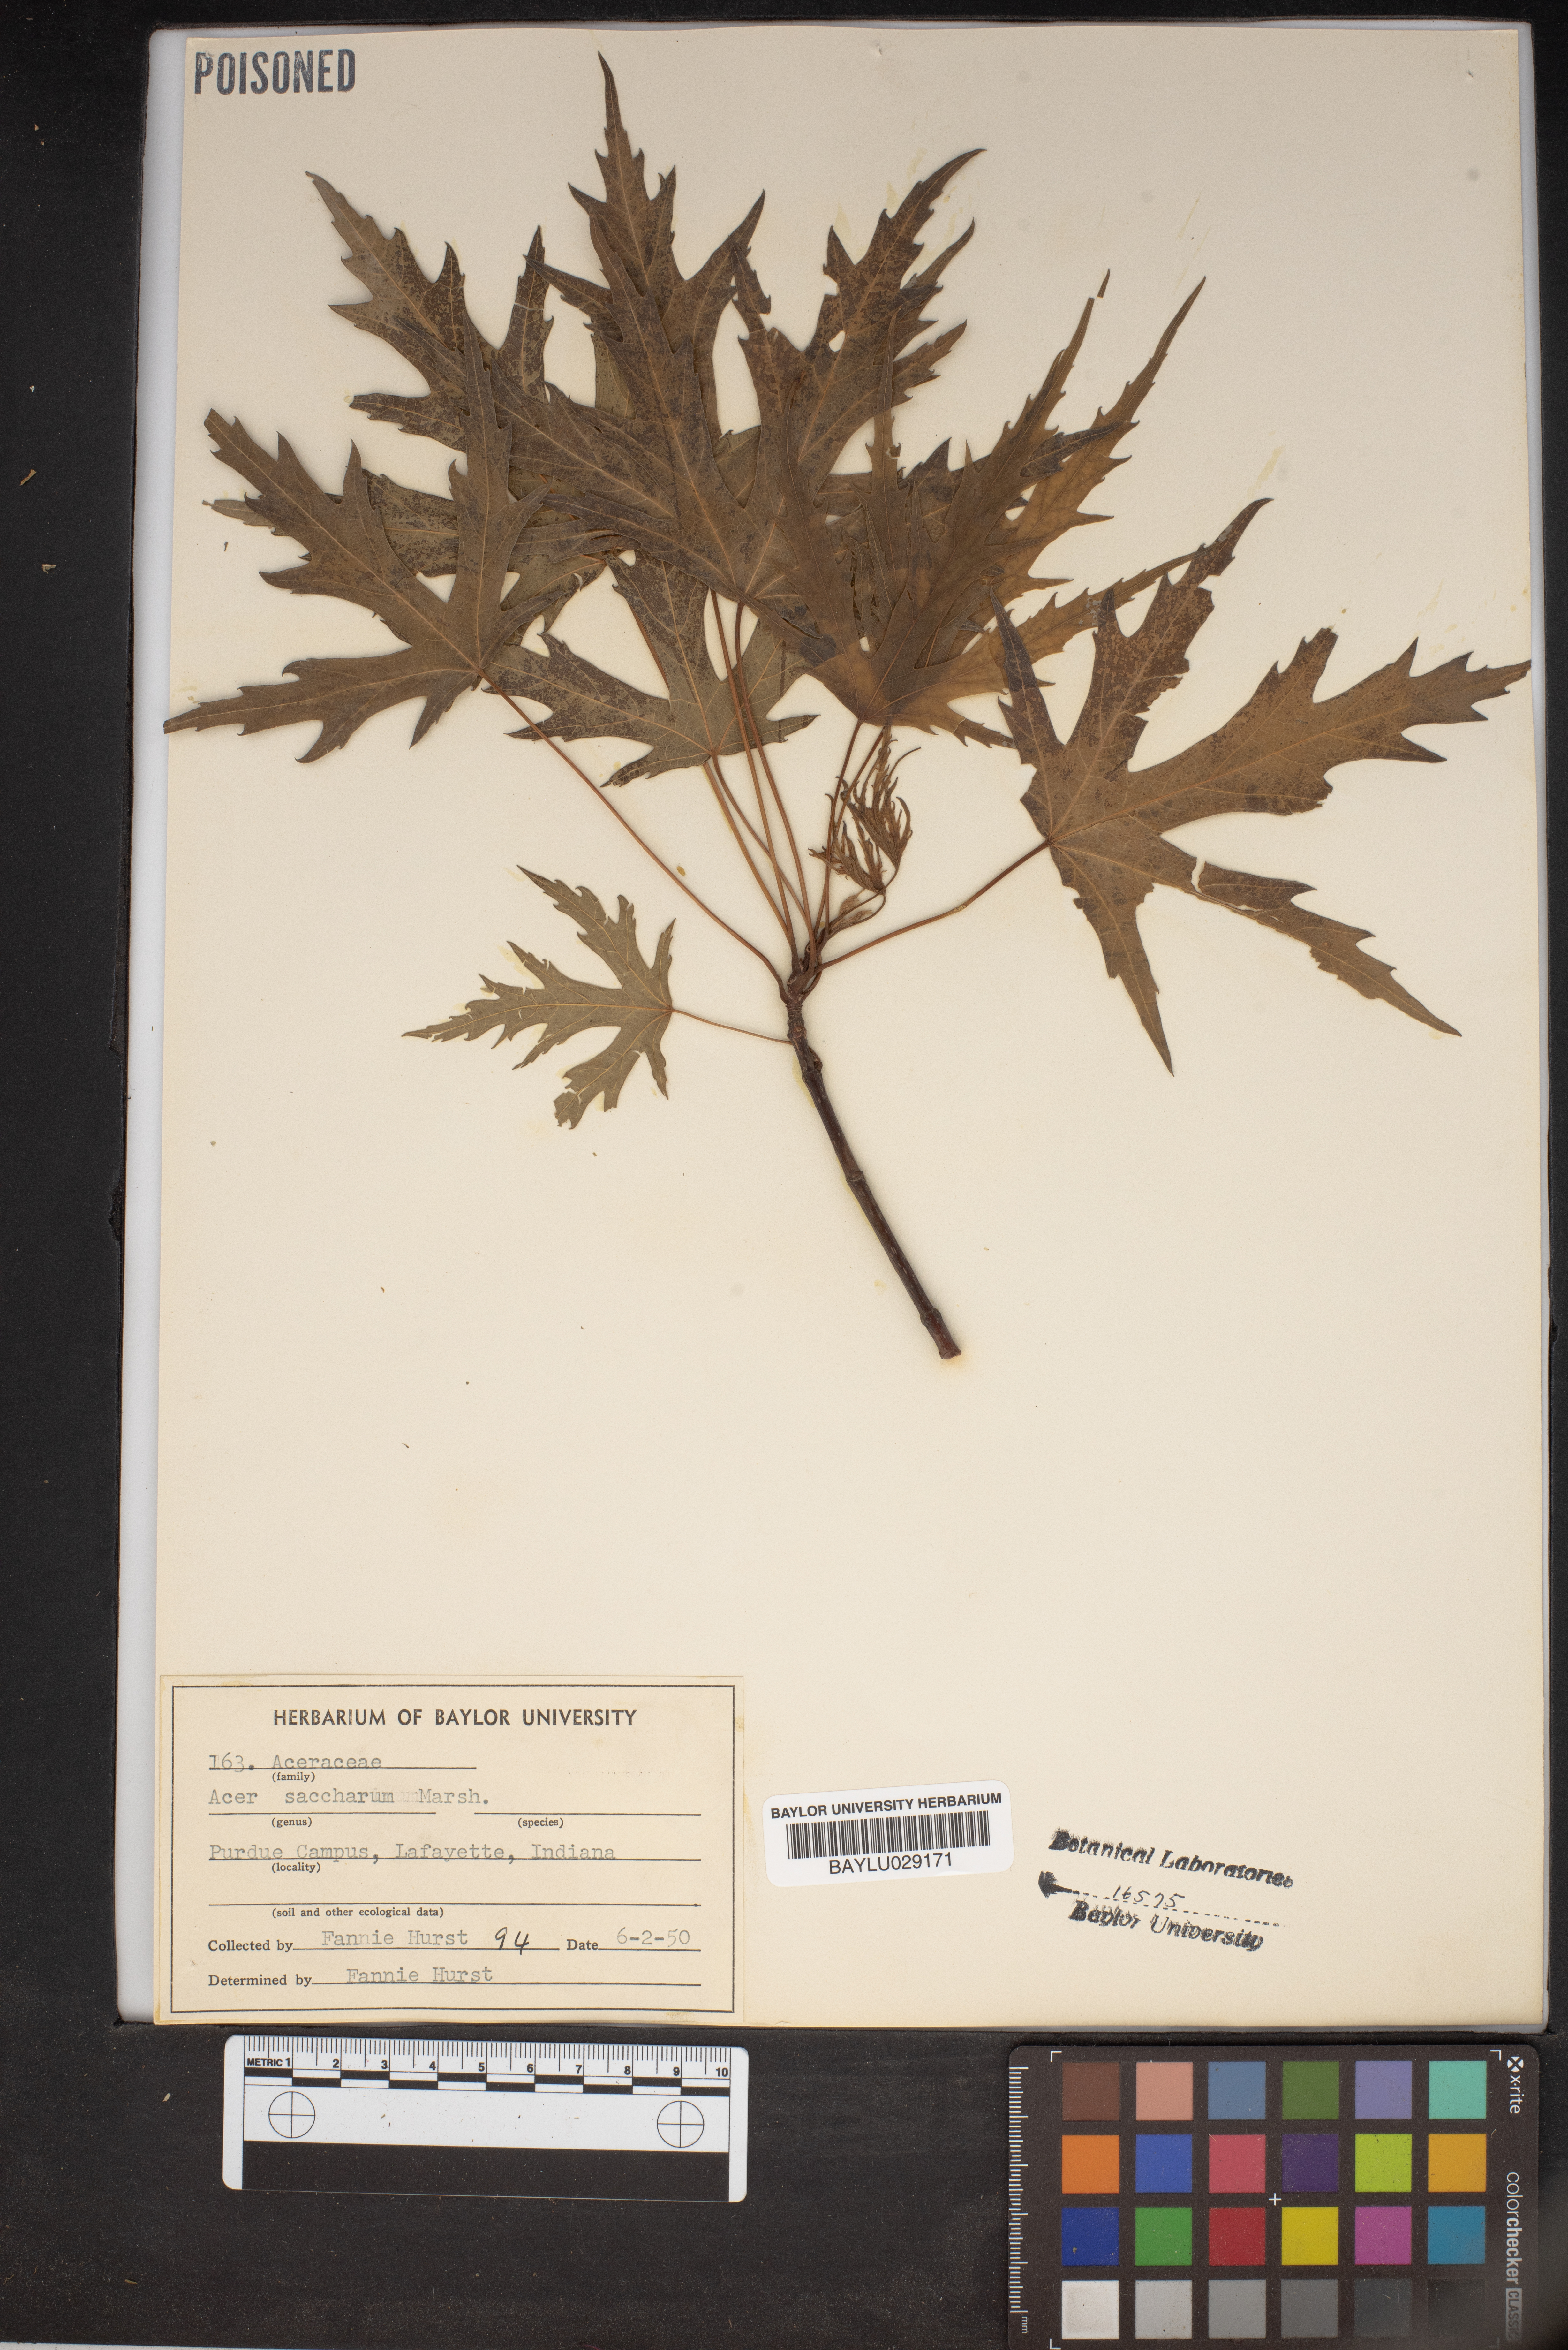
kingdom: Plantae
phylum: Tracheophyta
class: Magnoliopsida
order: Sapindales
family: Sapindaceae
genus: Acer
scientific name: Acer saccharum
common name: Sugar maple
